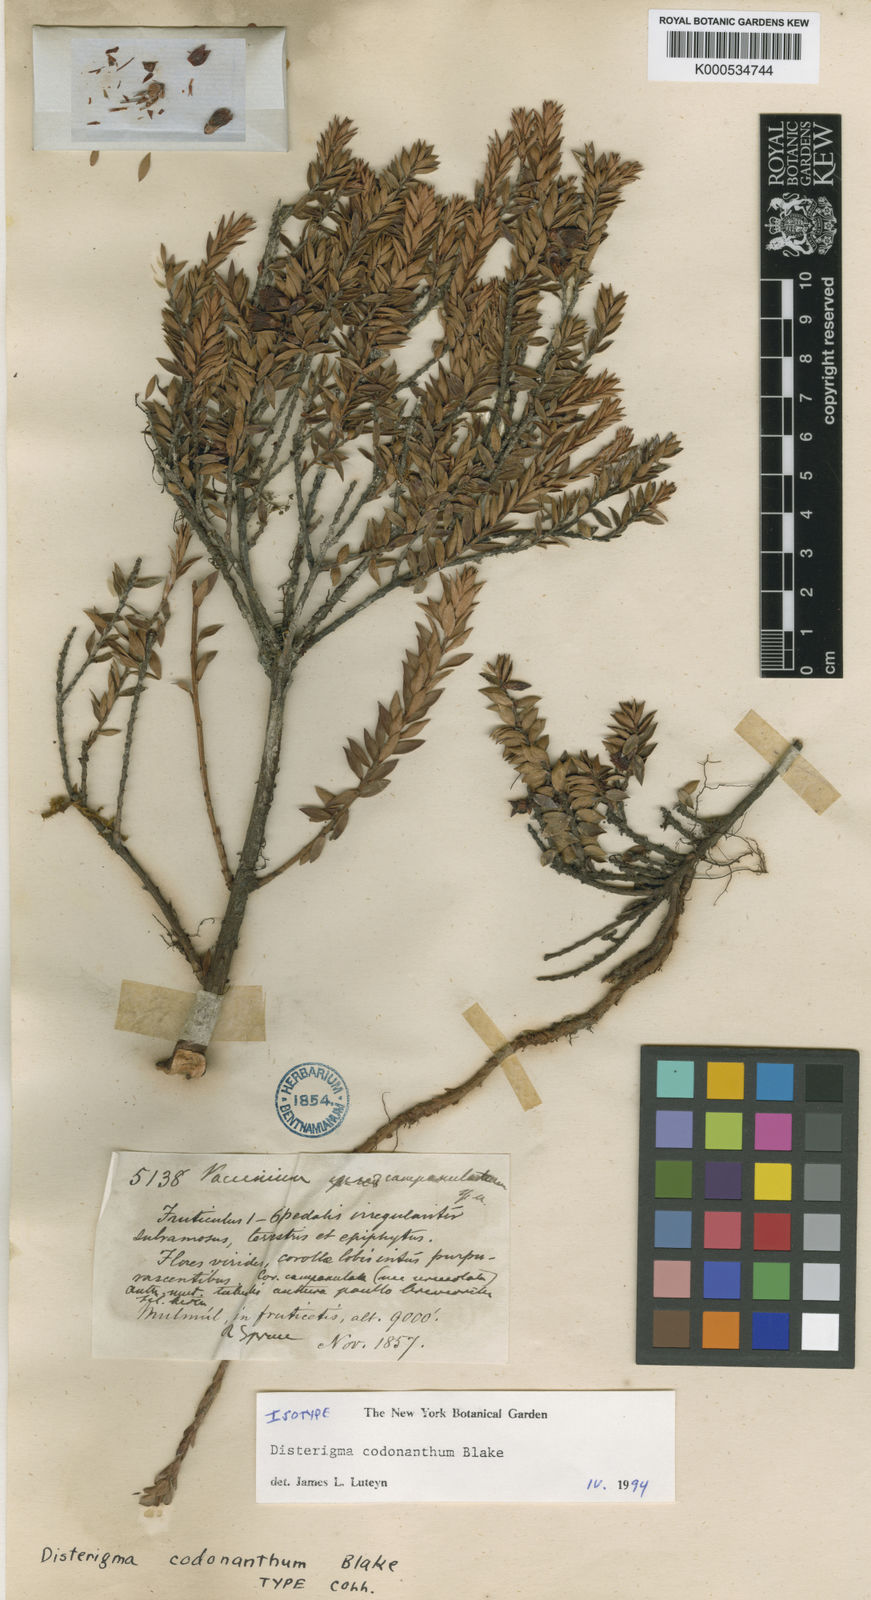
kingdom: Plantae
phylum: Tracheophyta
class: Magnoliopsida
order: Ericales
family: Ericaceae
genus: Disterigma
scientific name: Disterigma codonanthum
